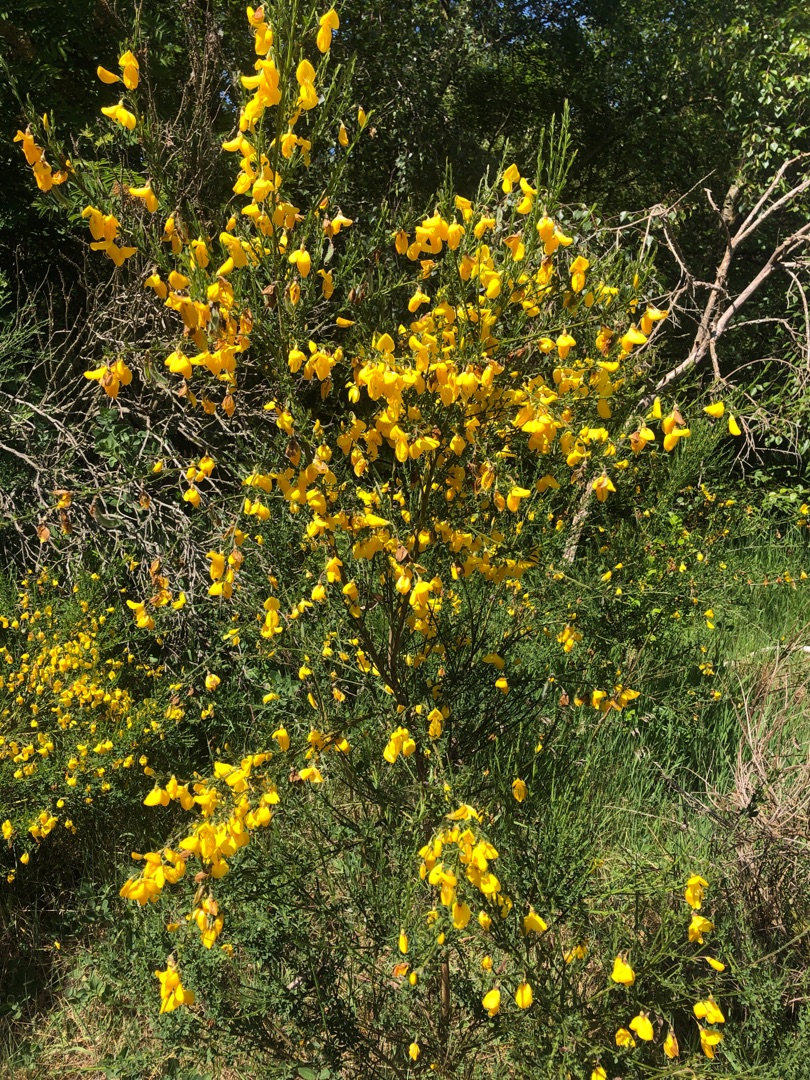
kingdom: Plantae
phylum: Tracheophyta
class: Magnoliopsida
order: Fabales
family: Fabaceae
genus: Cytisus
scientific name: Cytisus scoparius
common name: Almindelig gyvel
